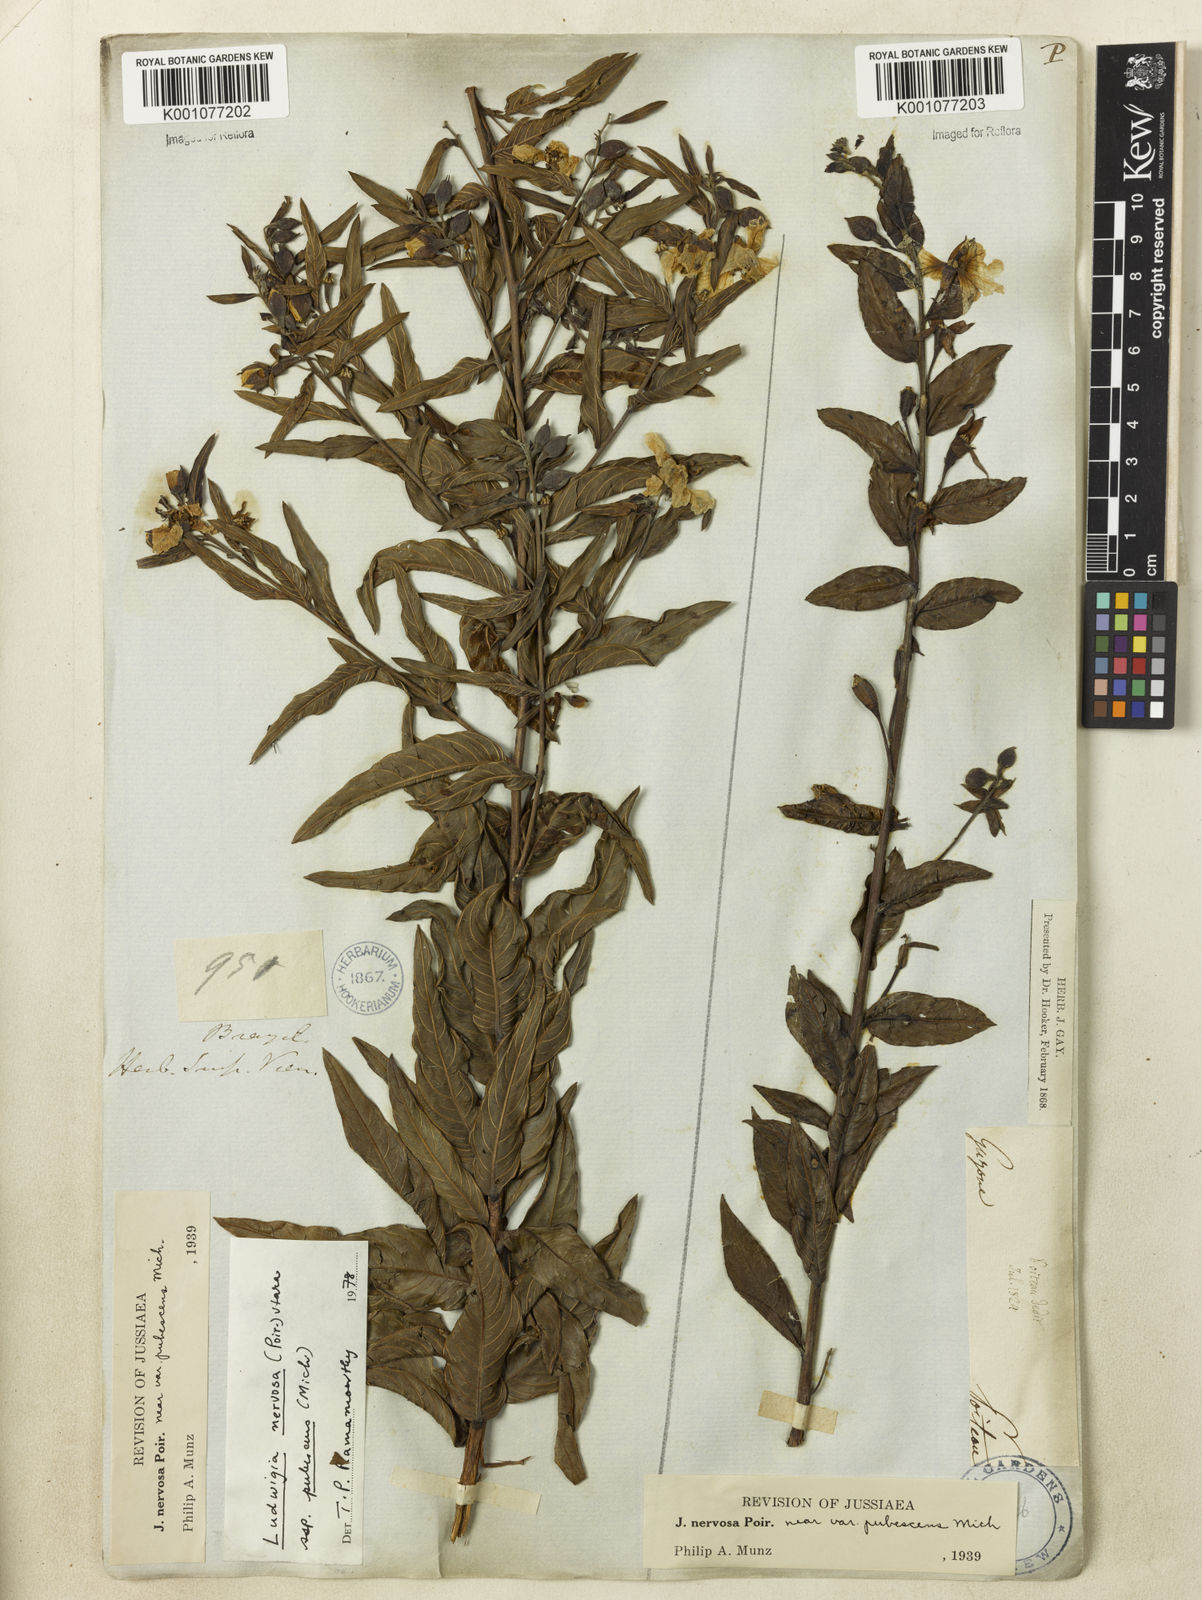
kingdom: Plantae
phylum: Tracheophyta
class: Magnoliopsida
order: Myrtales
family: Onagraceae
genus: Ludwigia
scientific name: Ludwigia nervosa
